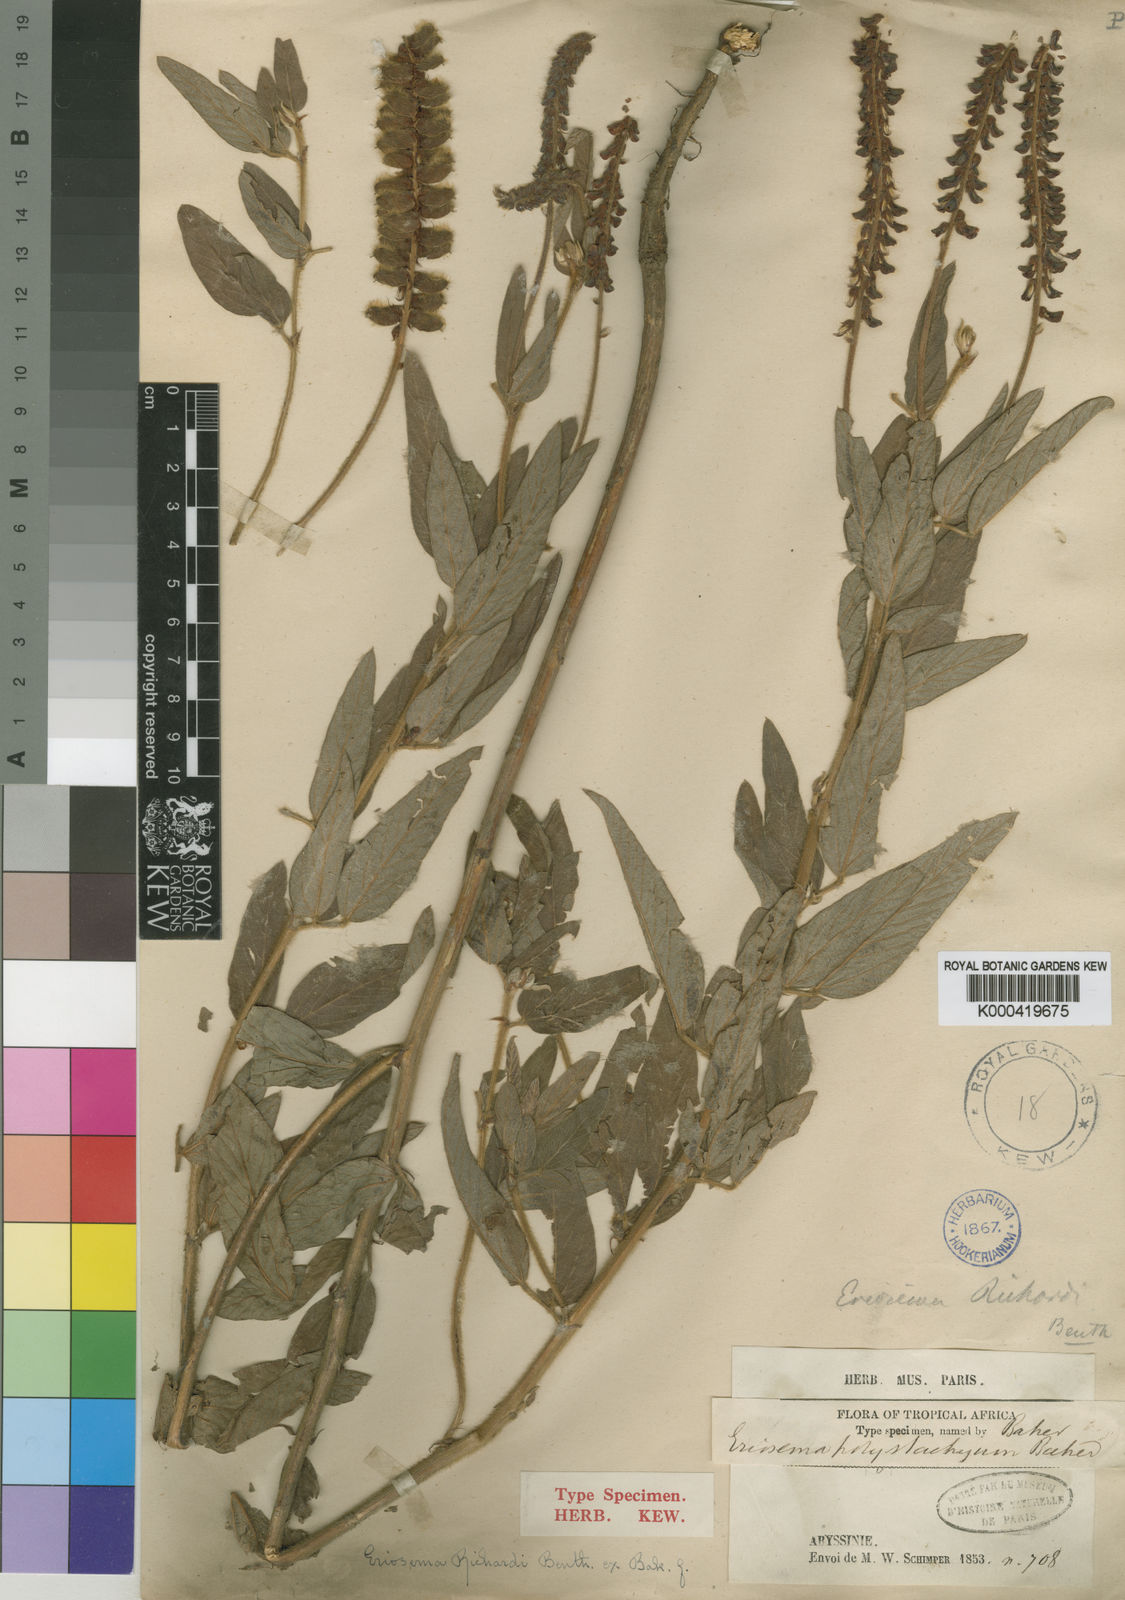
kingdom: Plantae
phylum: Tracheophyta
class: Magnoliopsida
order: Fabales
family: Fabaceae
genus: Eriosema
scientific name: Eriosema nutans
